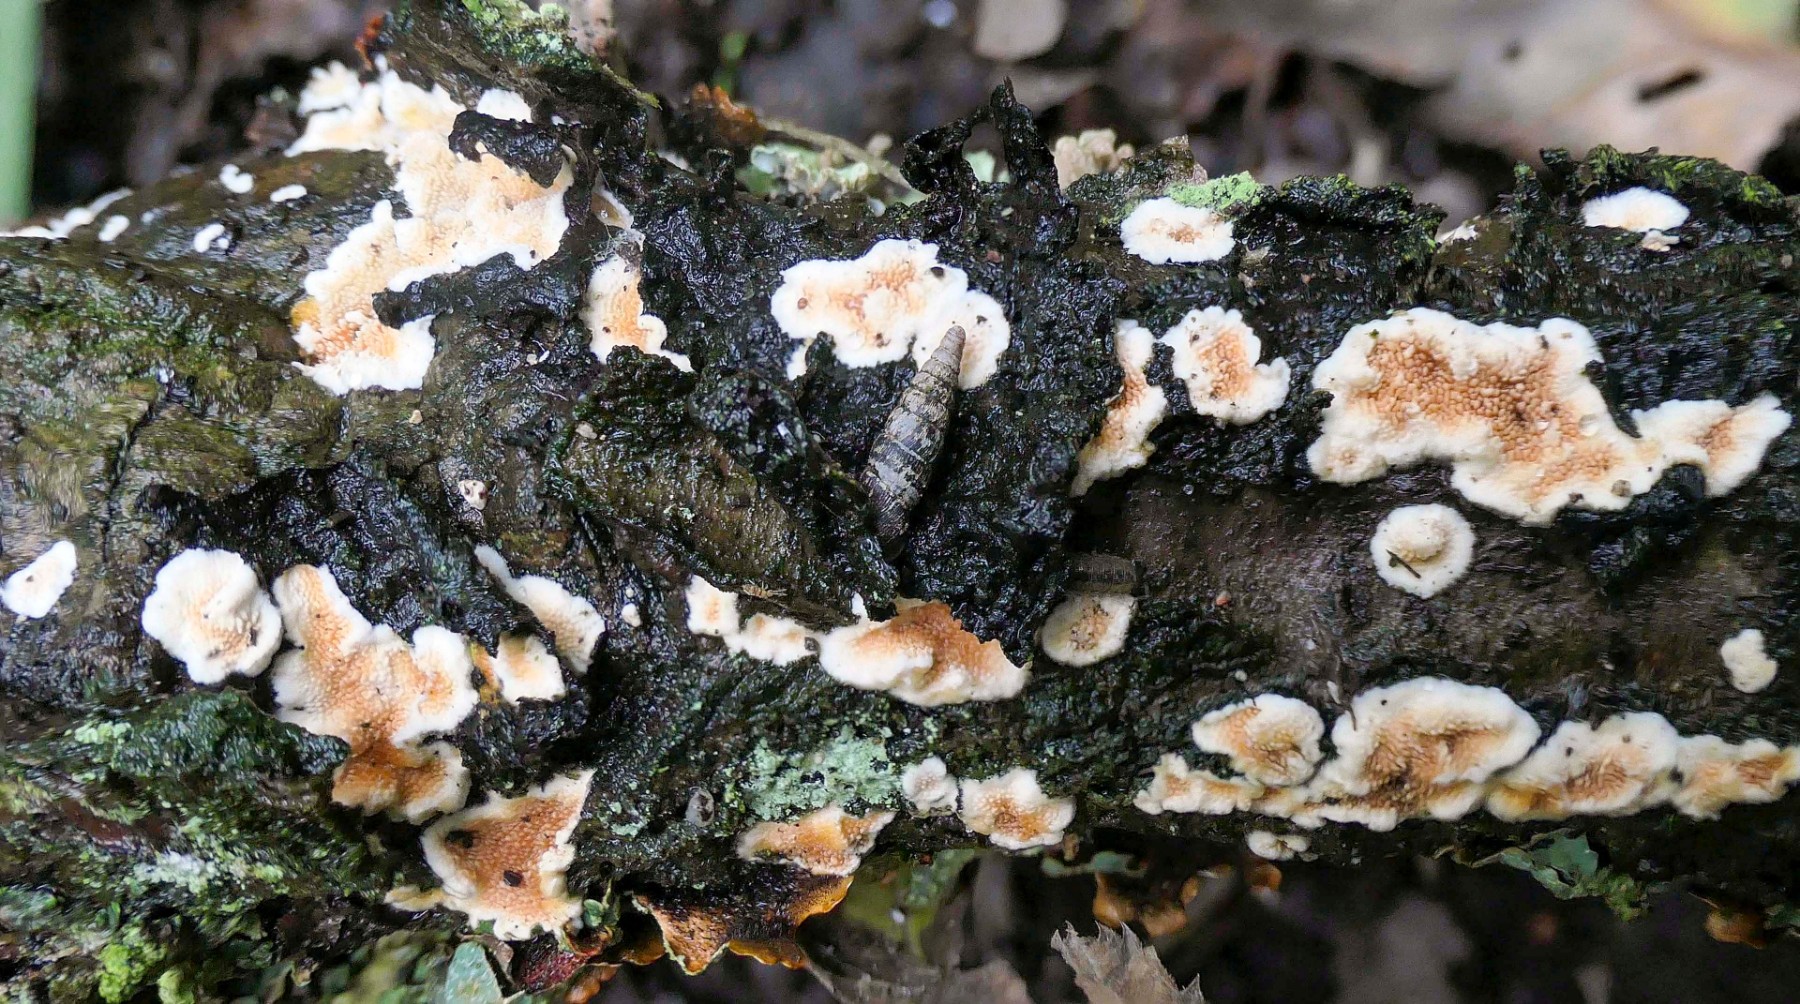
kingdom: Fungi
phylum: Basidiomycota
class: Agaricomycetes
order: Polyporales
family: Steccherinaceae
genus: Steccherinum
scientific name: Steccherinum ochraceum
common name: almindelig skønpig
